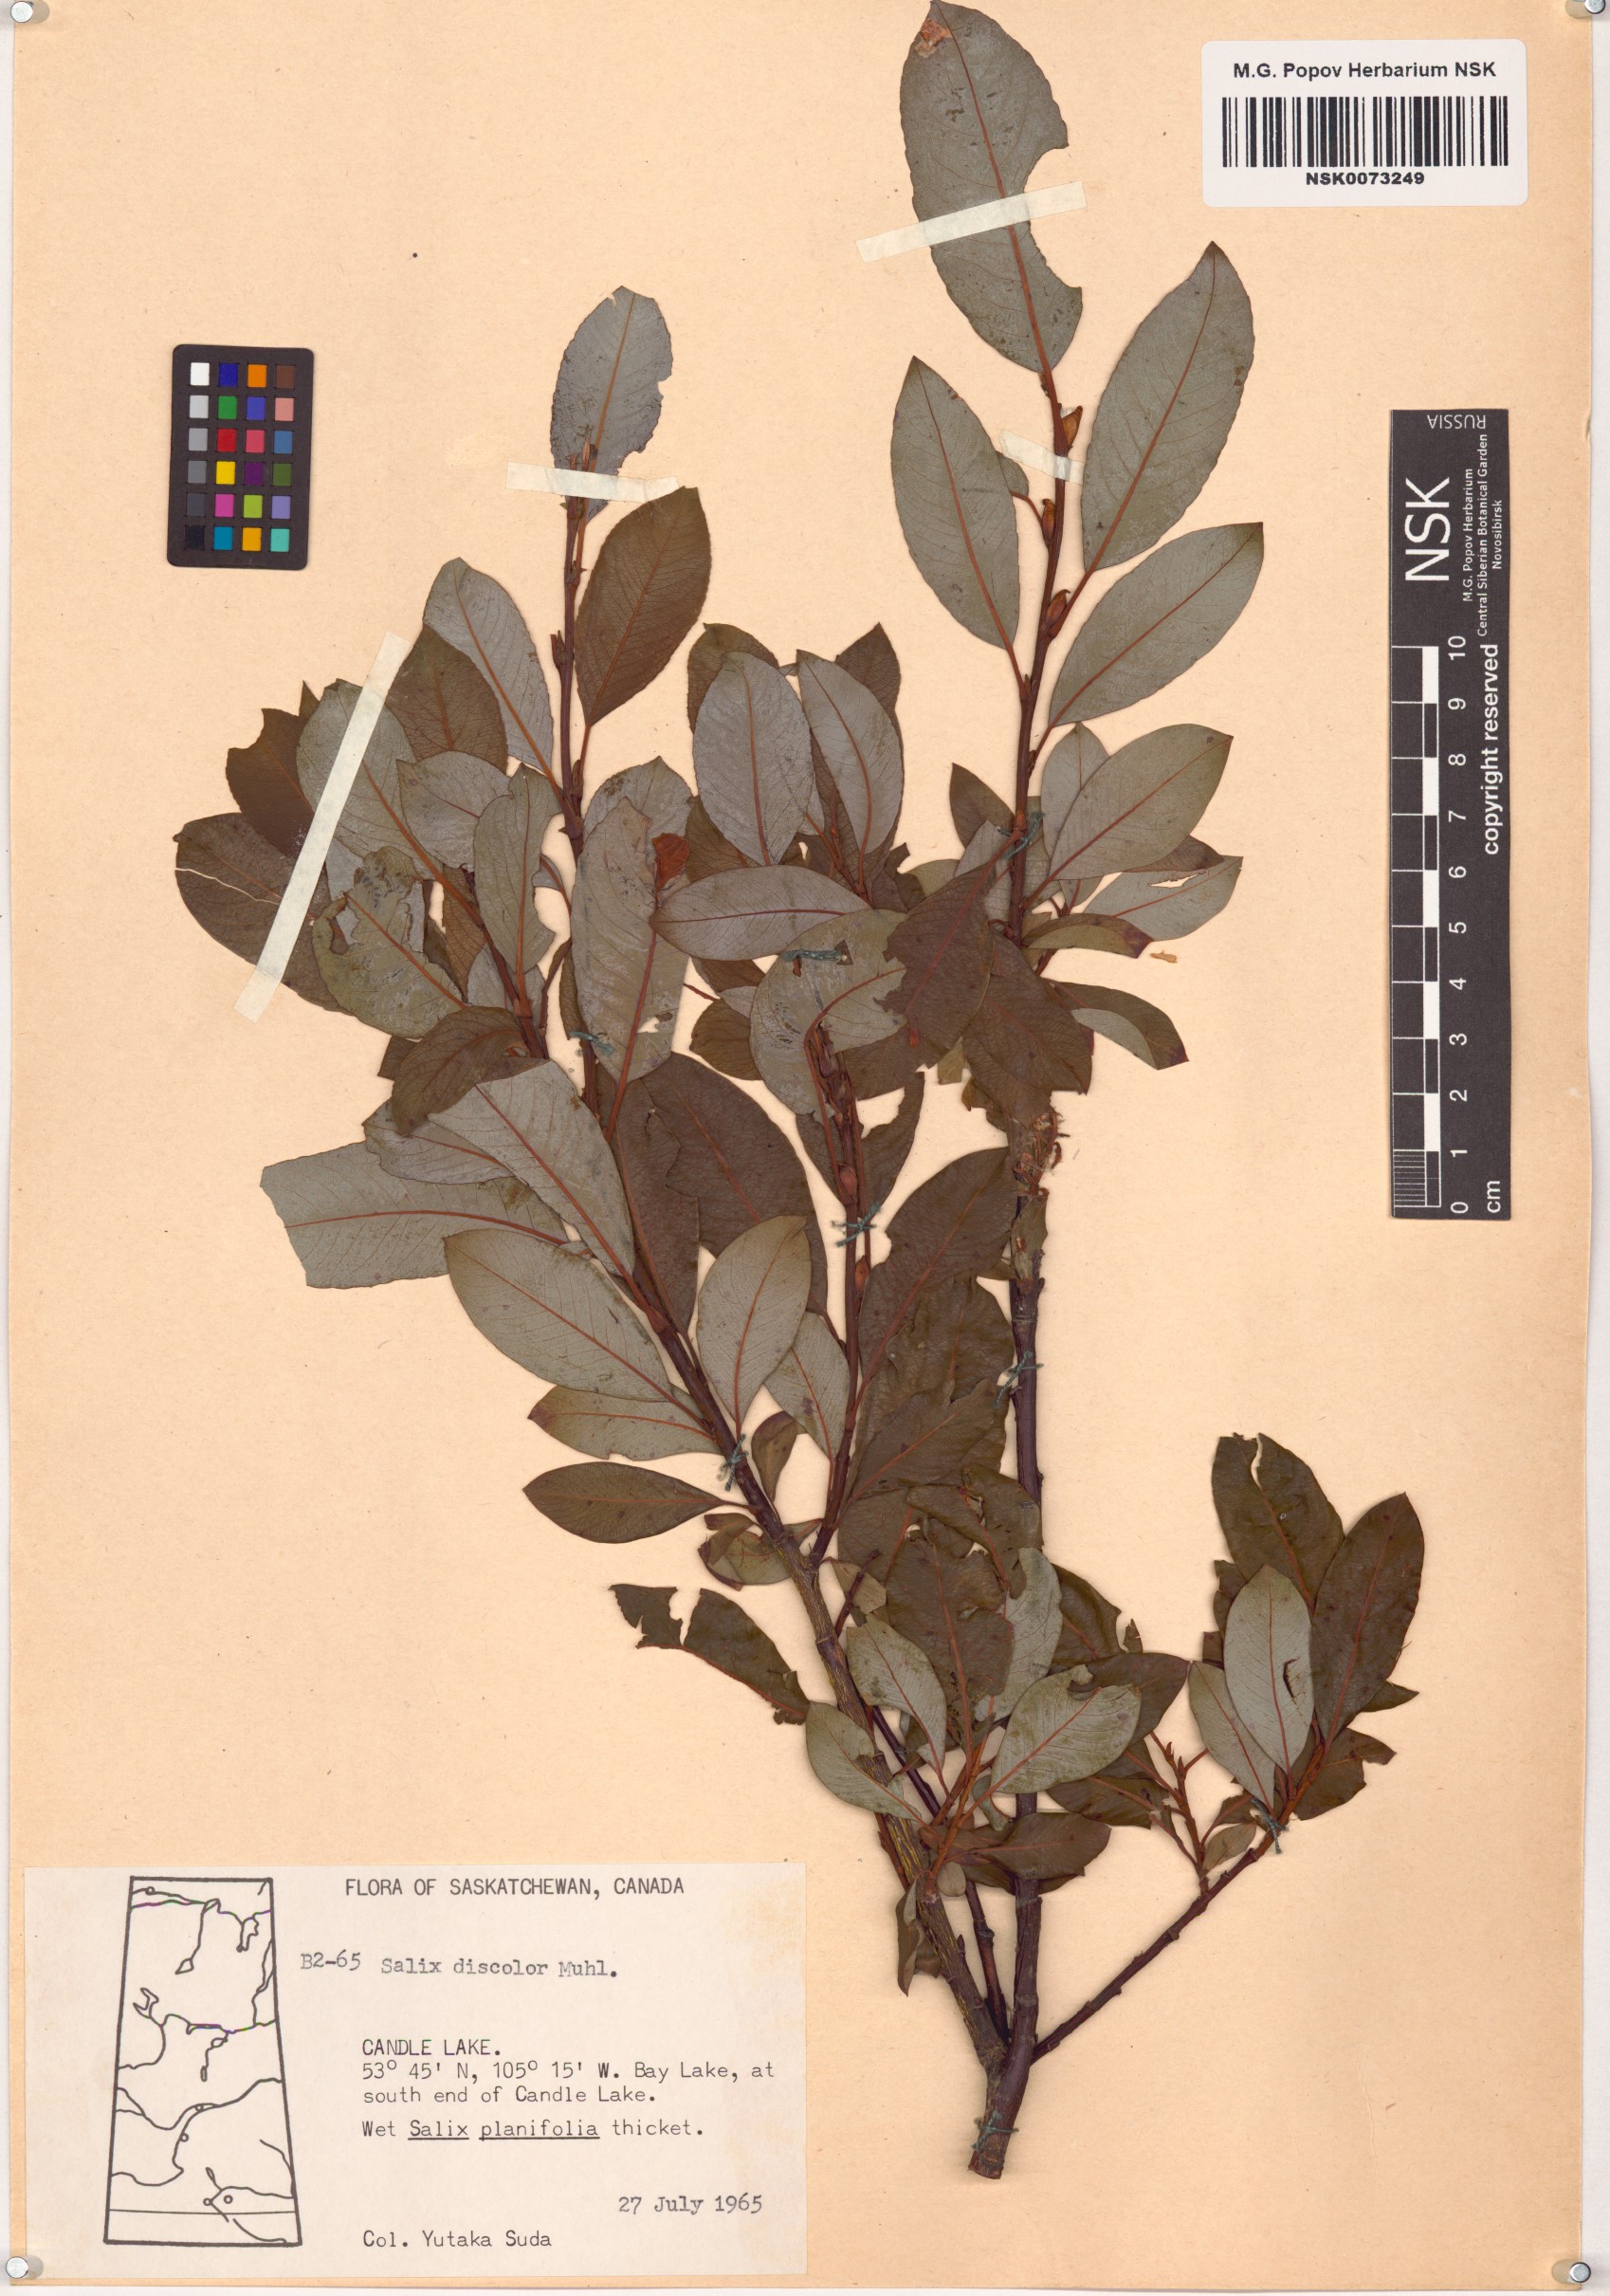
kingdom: Plantae
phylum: Tracheophyta
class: Magnoliopsida
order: Malpighiales
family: Salicaceae
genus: Salix
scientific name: Salix discolor
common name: Glaucous willow
